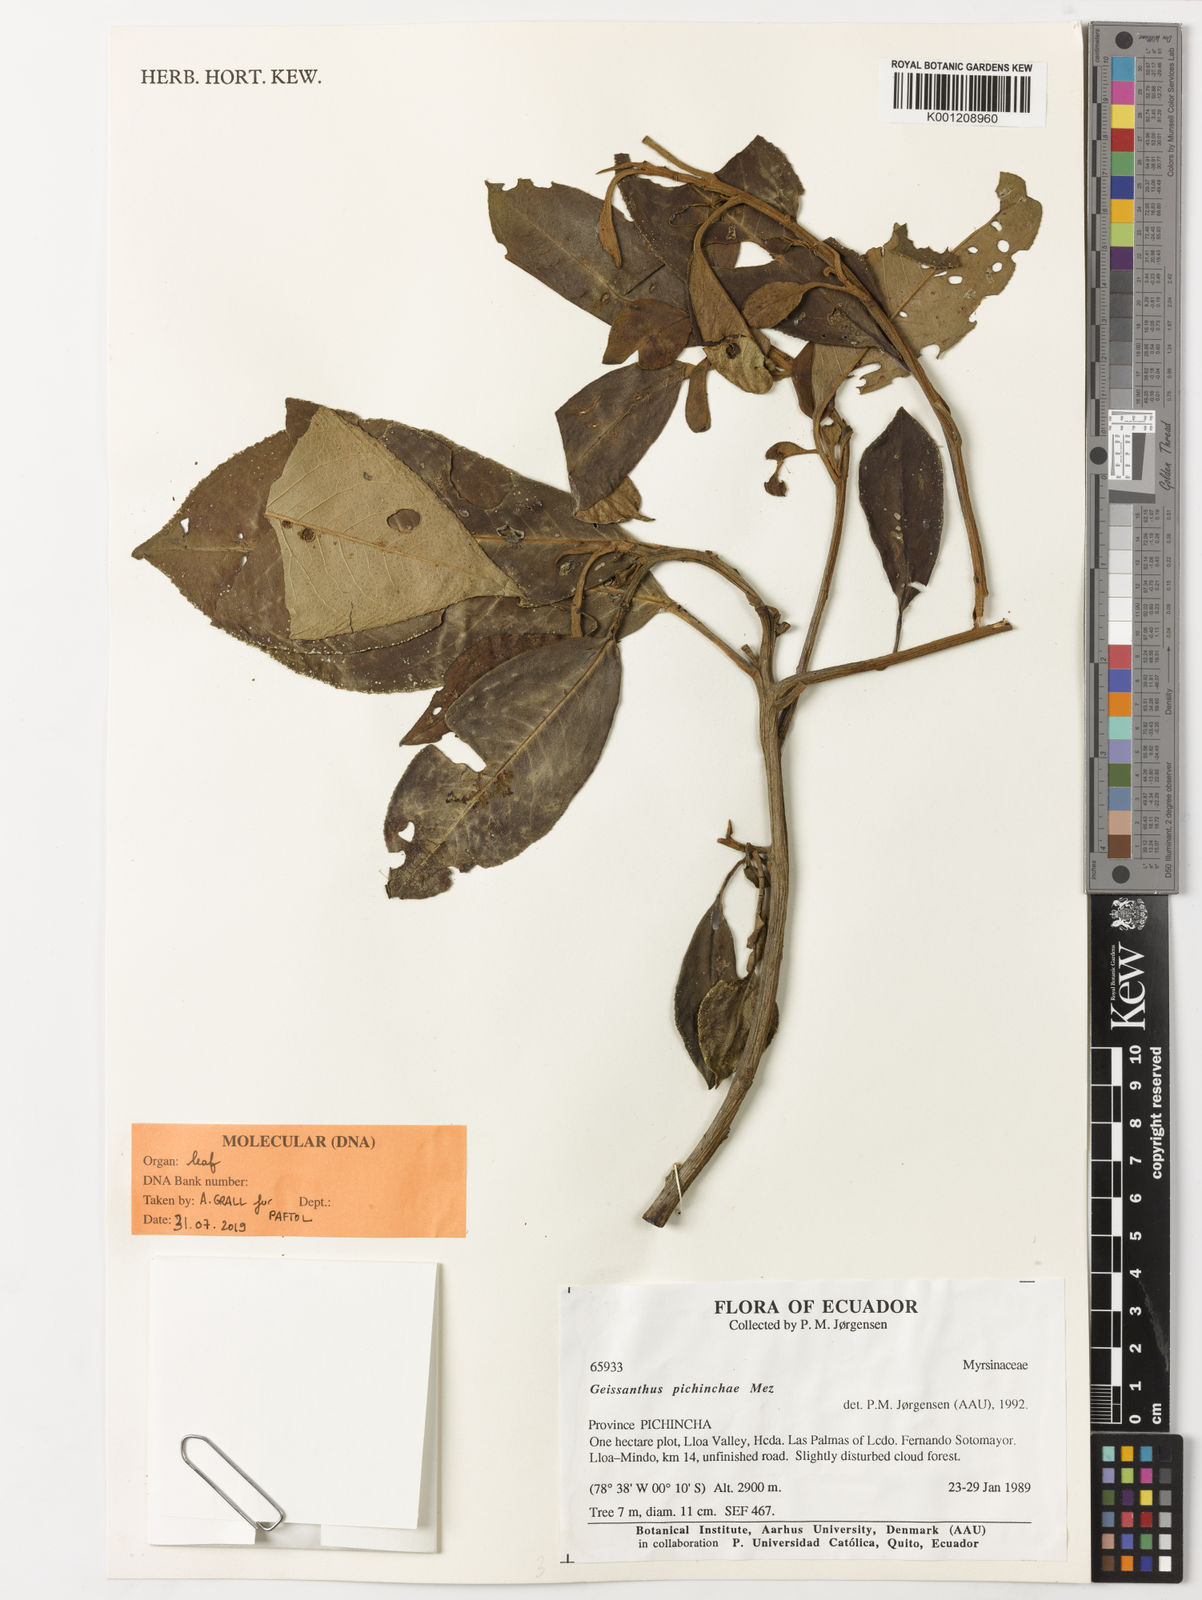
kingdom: Plantae
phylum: Tracheophyta
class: Magnoliopsida
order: Ericales
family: Primulaceae
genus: Geissanthus
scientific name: Geissanthus pichinchae
